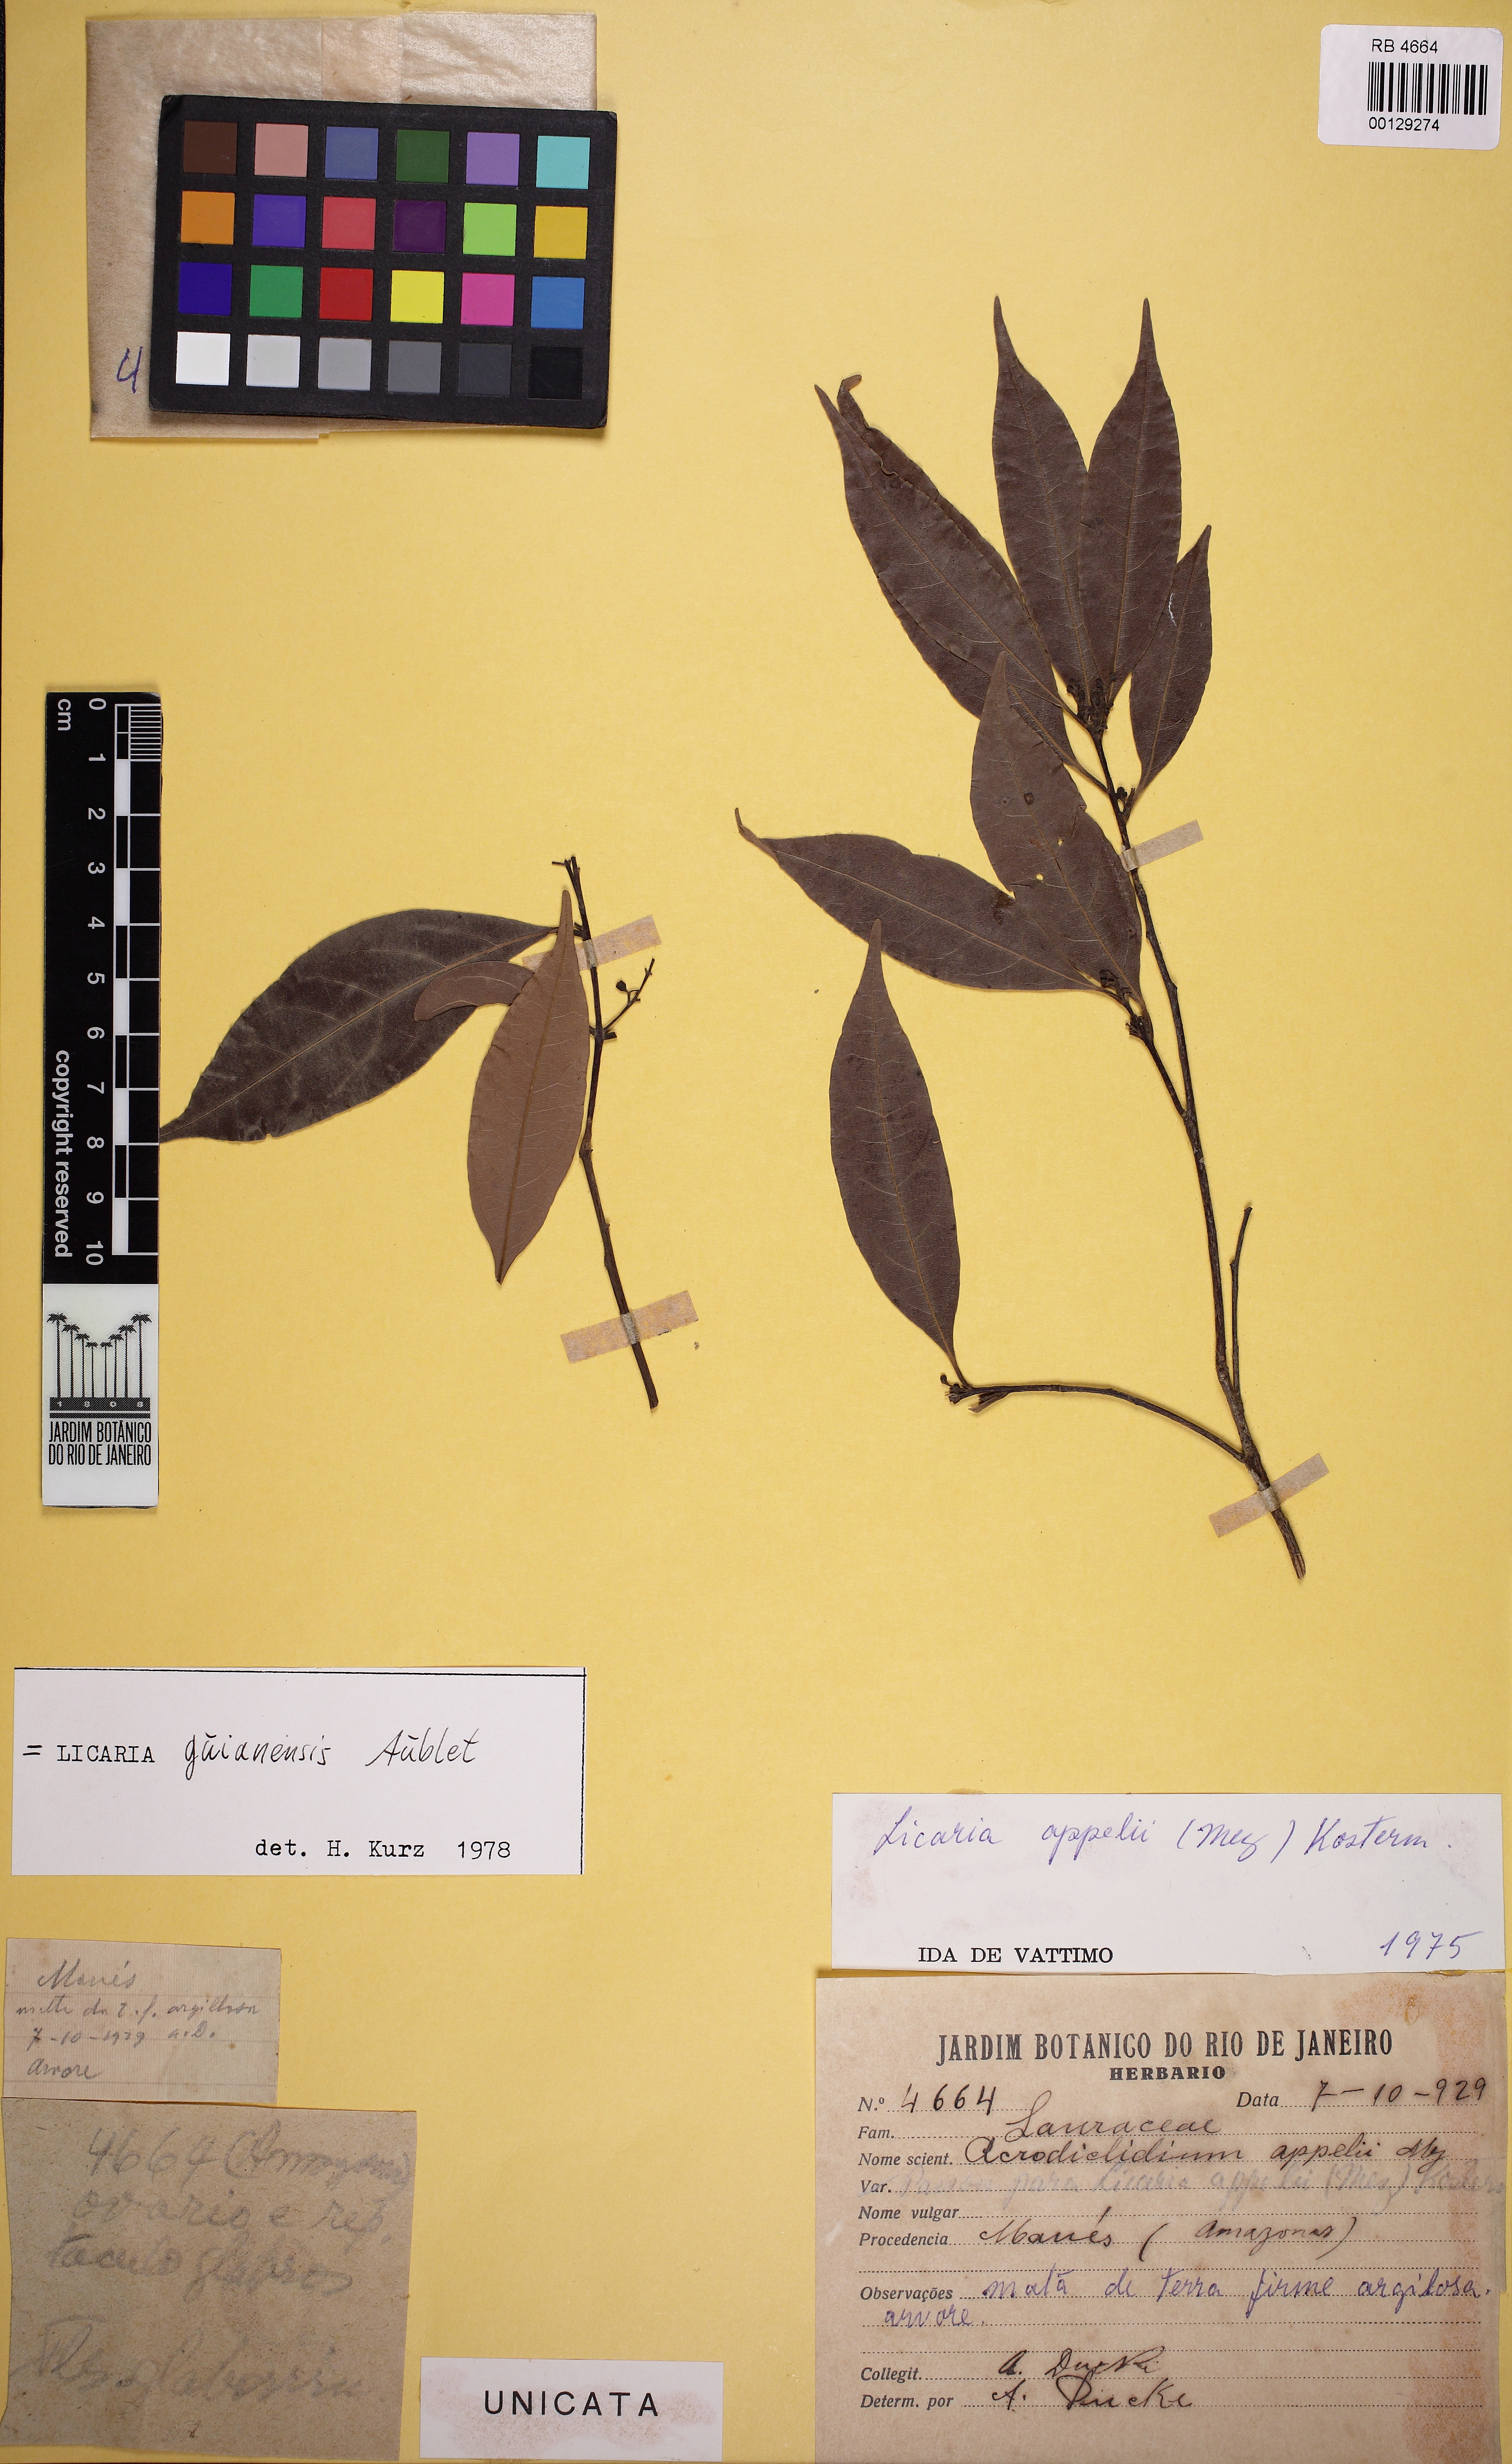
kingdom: Plantae
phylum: Tracheophyta
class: Magnoliopsida
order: Laurales
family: Lauraceae
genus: Licaria
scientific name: Licaria guianensis
